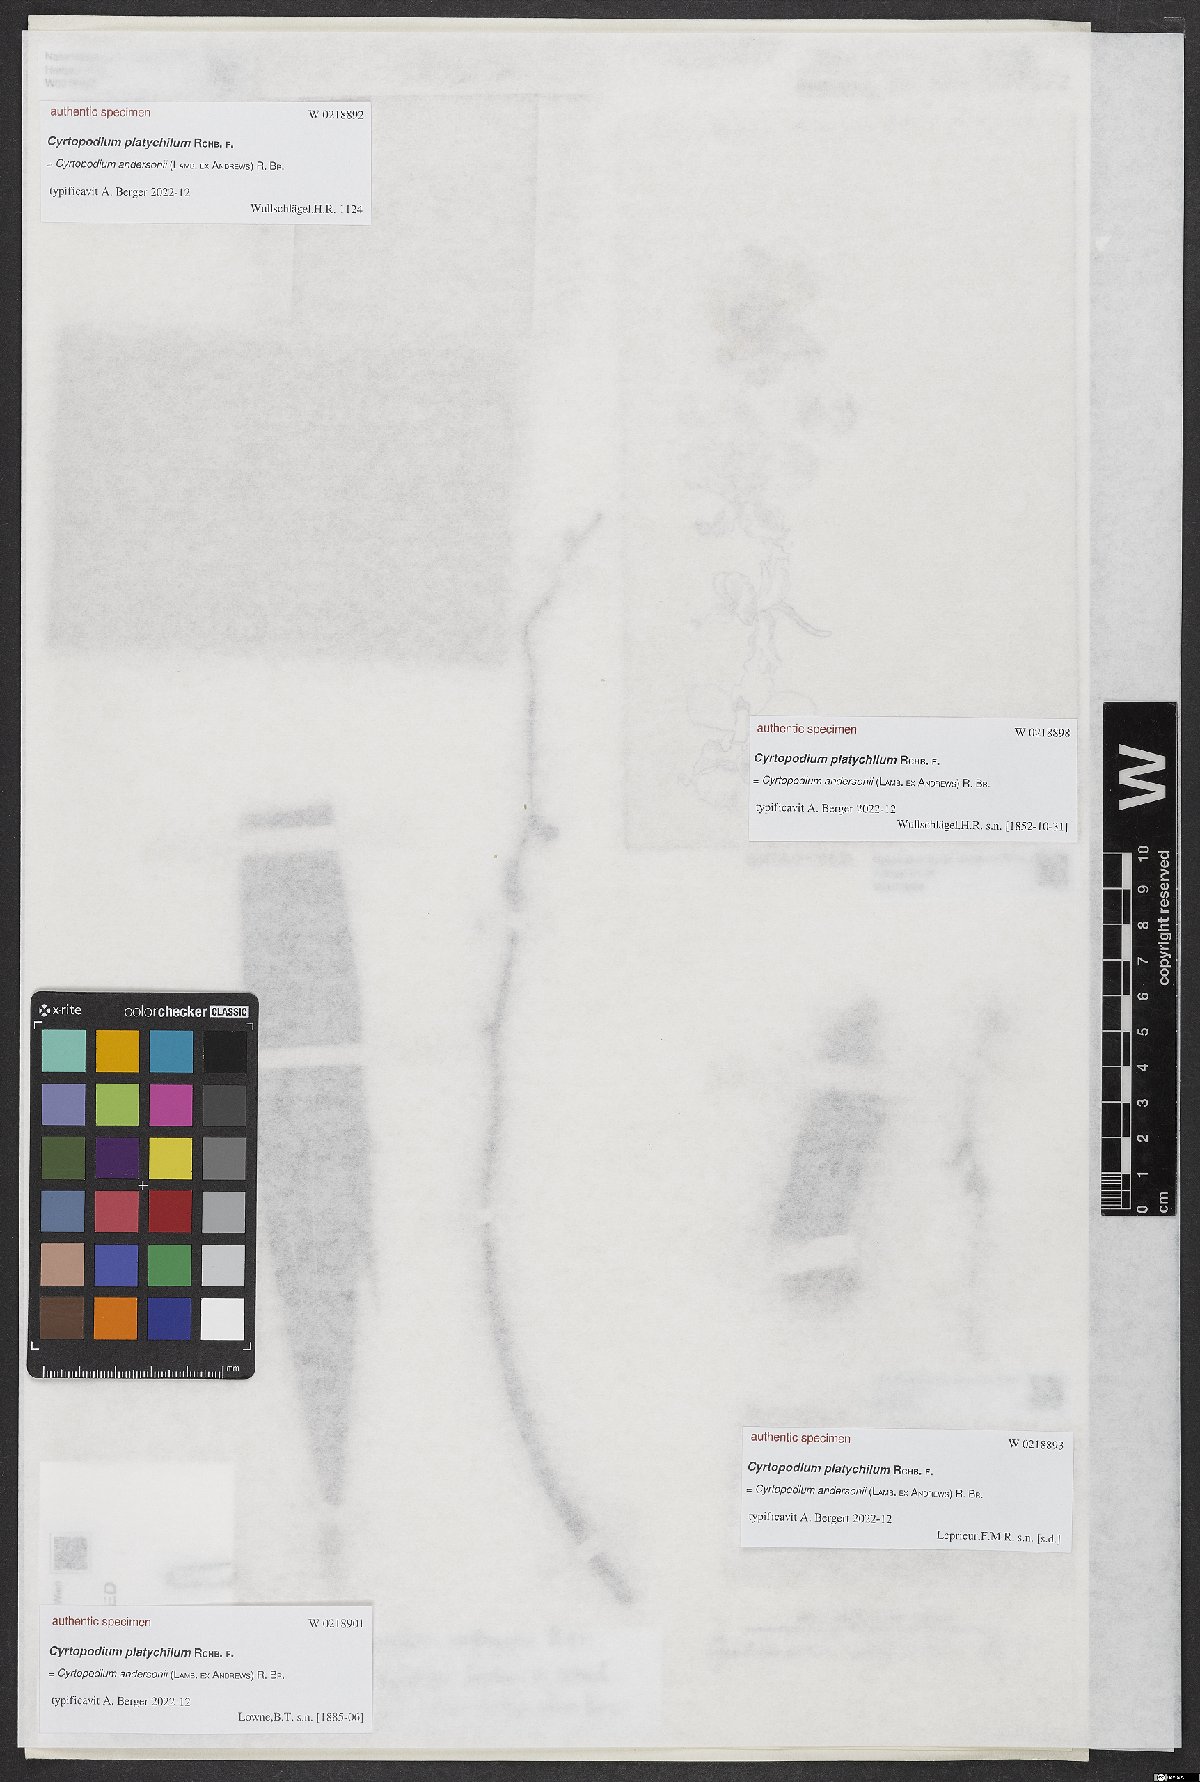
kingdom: Plantae
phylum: Tracheophyta
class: Liliopsida
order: Asparagales
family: Orchidaceae
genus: Cyrtopodium
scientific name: Cyrtopodium
